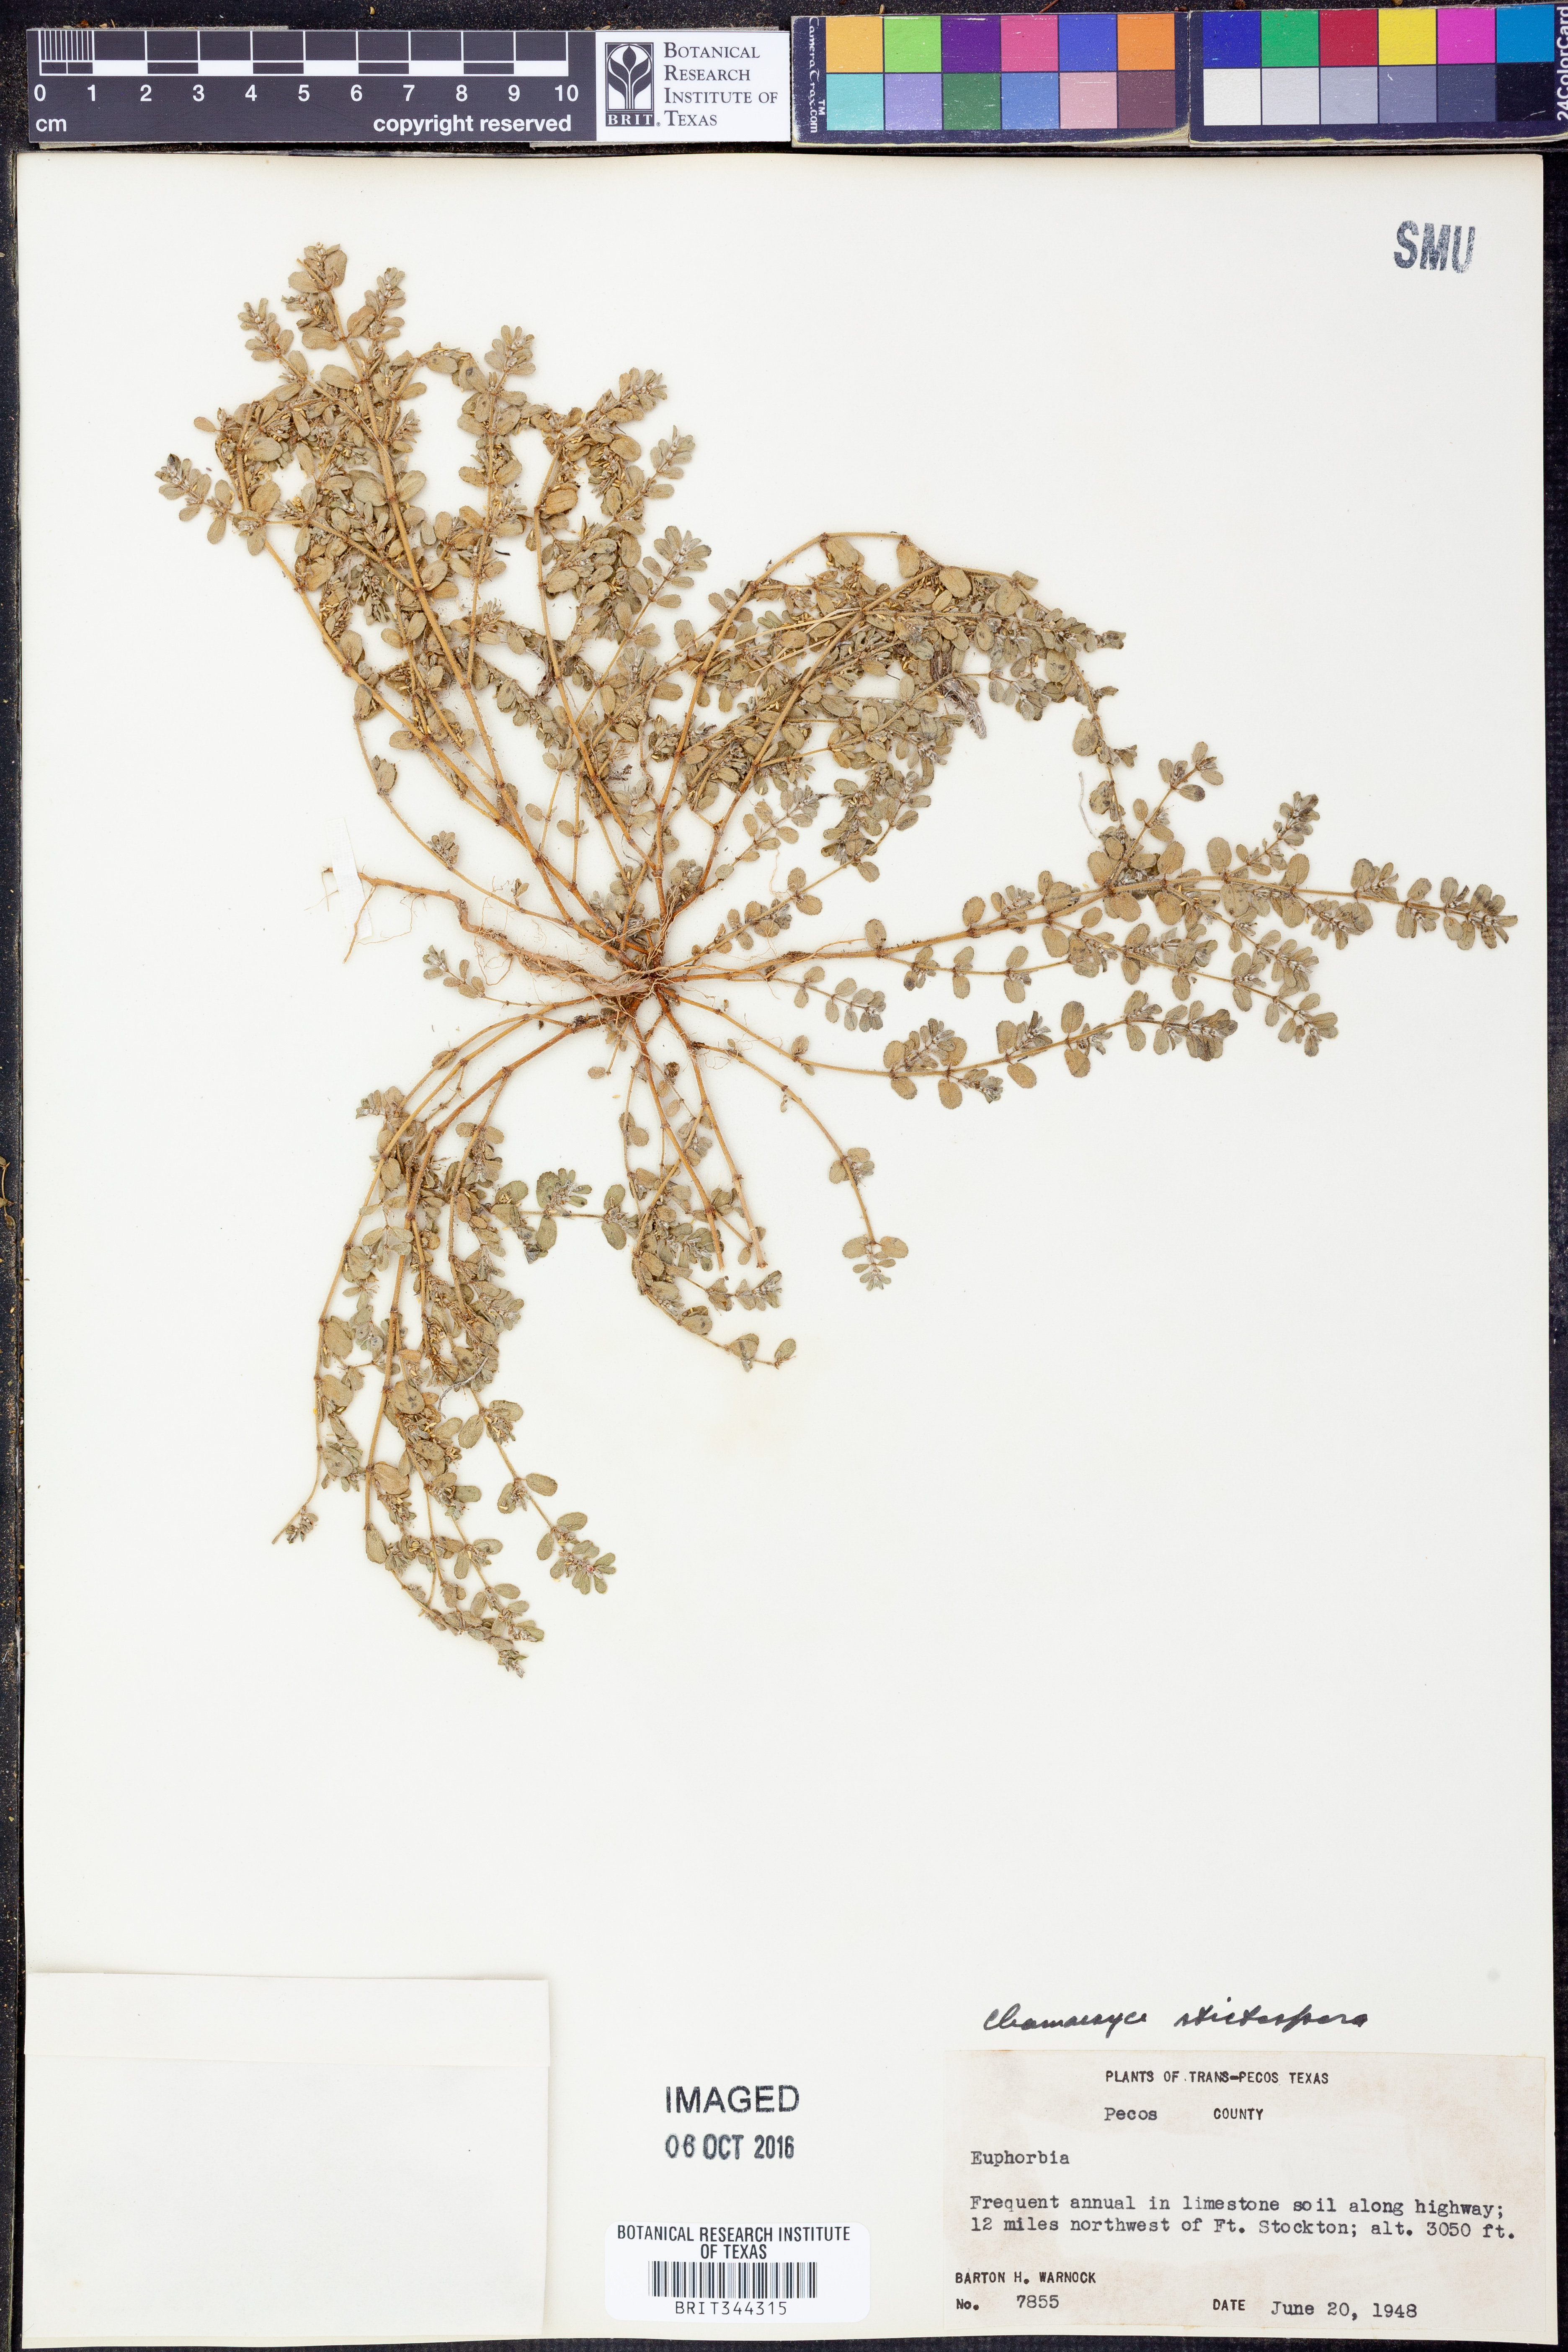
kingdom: Plantae
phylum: Tracheophyta
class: Magnoliopsida
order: Malpighiales
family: Euphorbiaceae
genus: Euphorbia
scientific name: Euphorbia stictospora
